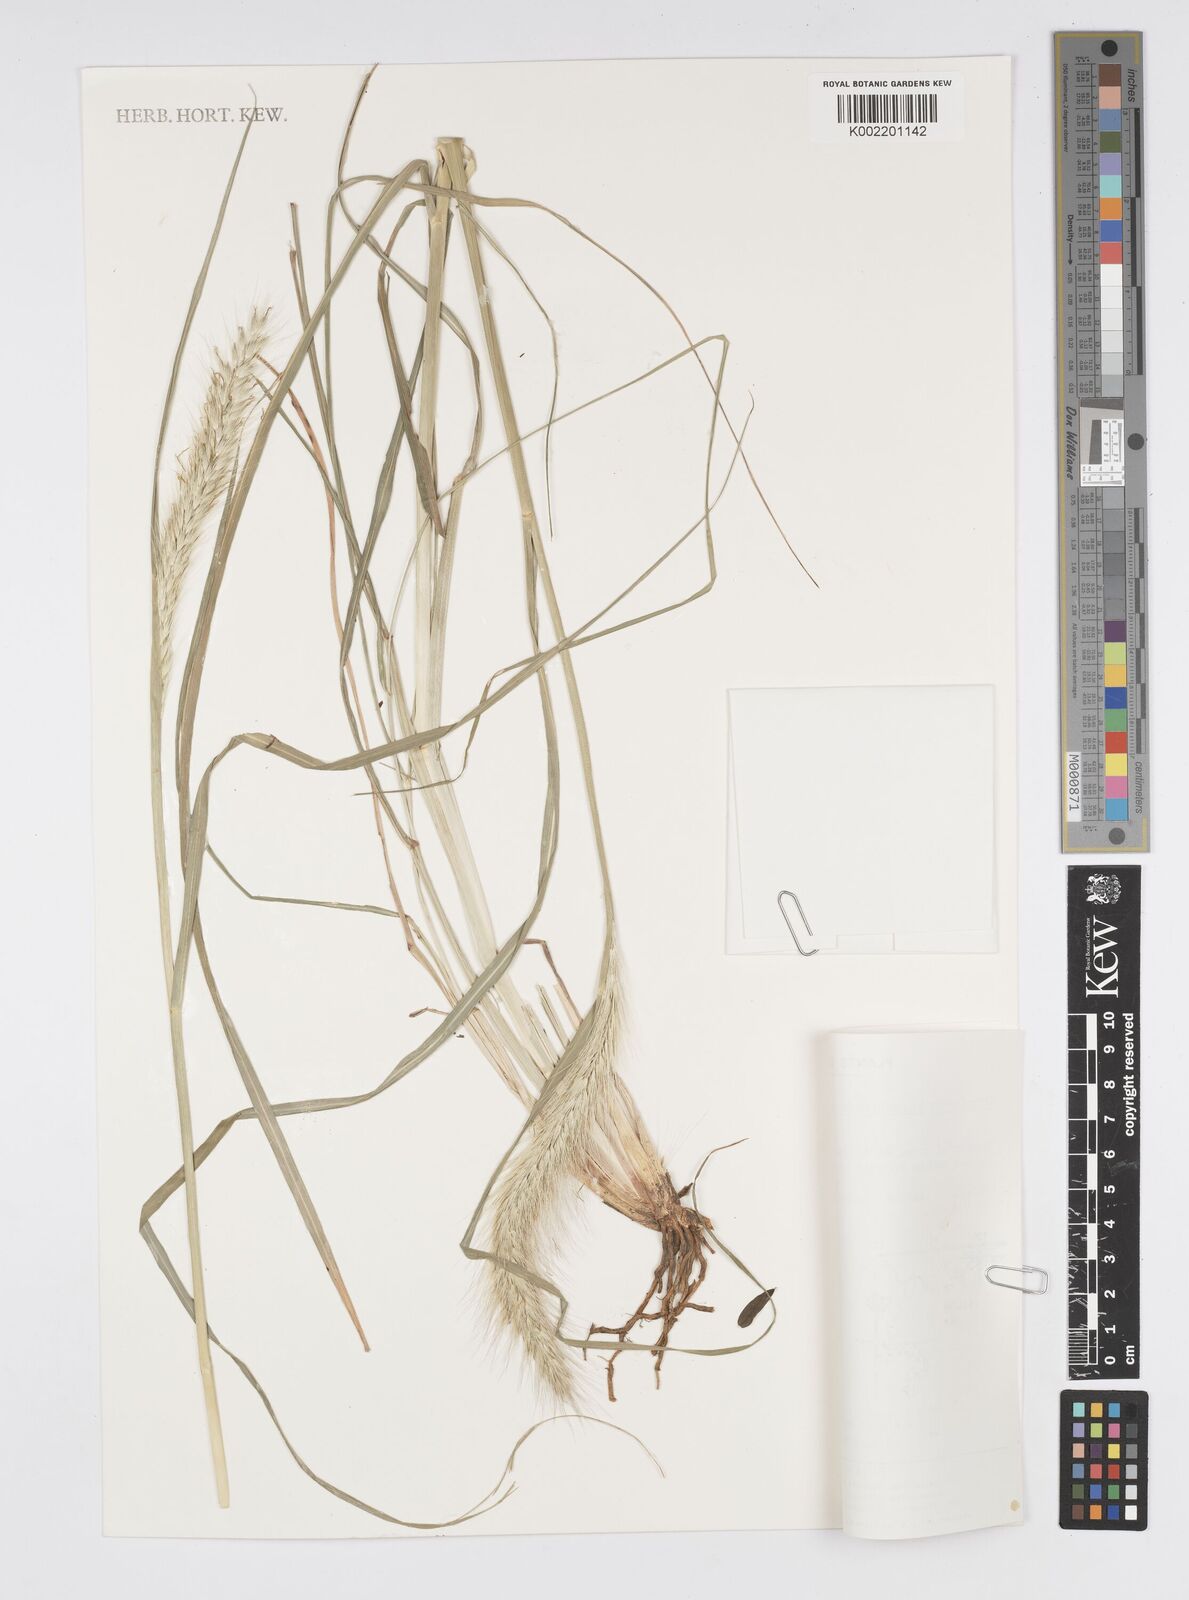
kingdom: Plantae
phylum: Tracheophyta
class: Liliopsida
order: Poales
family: Poaceae
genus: Cenchrus
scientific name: Cenchrus alopecuroides
